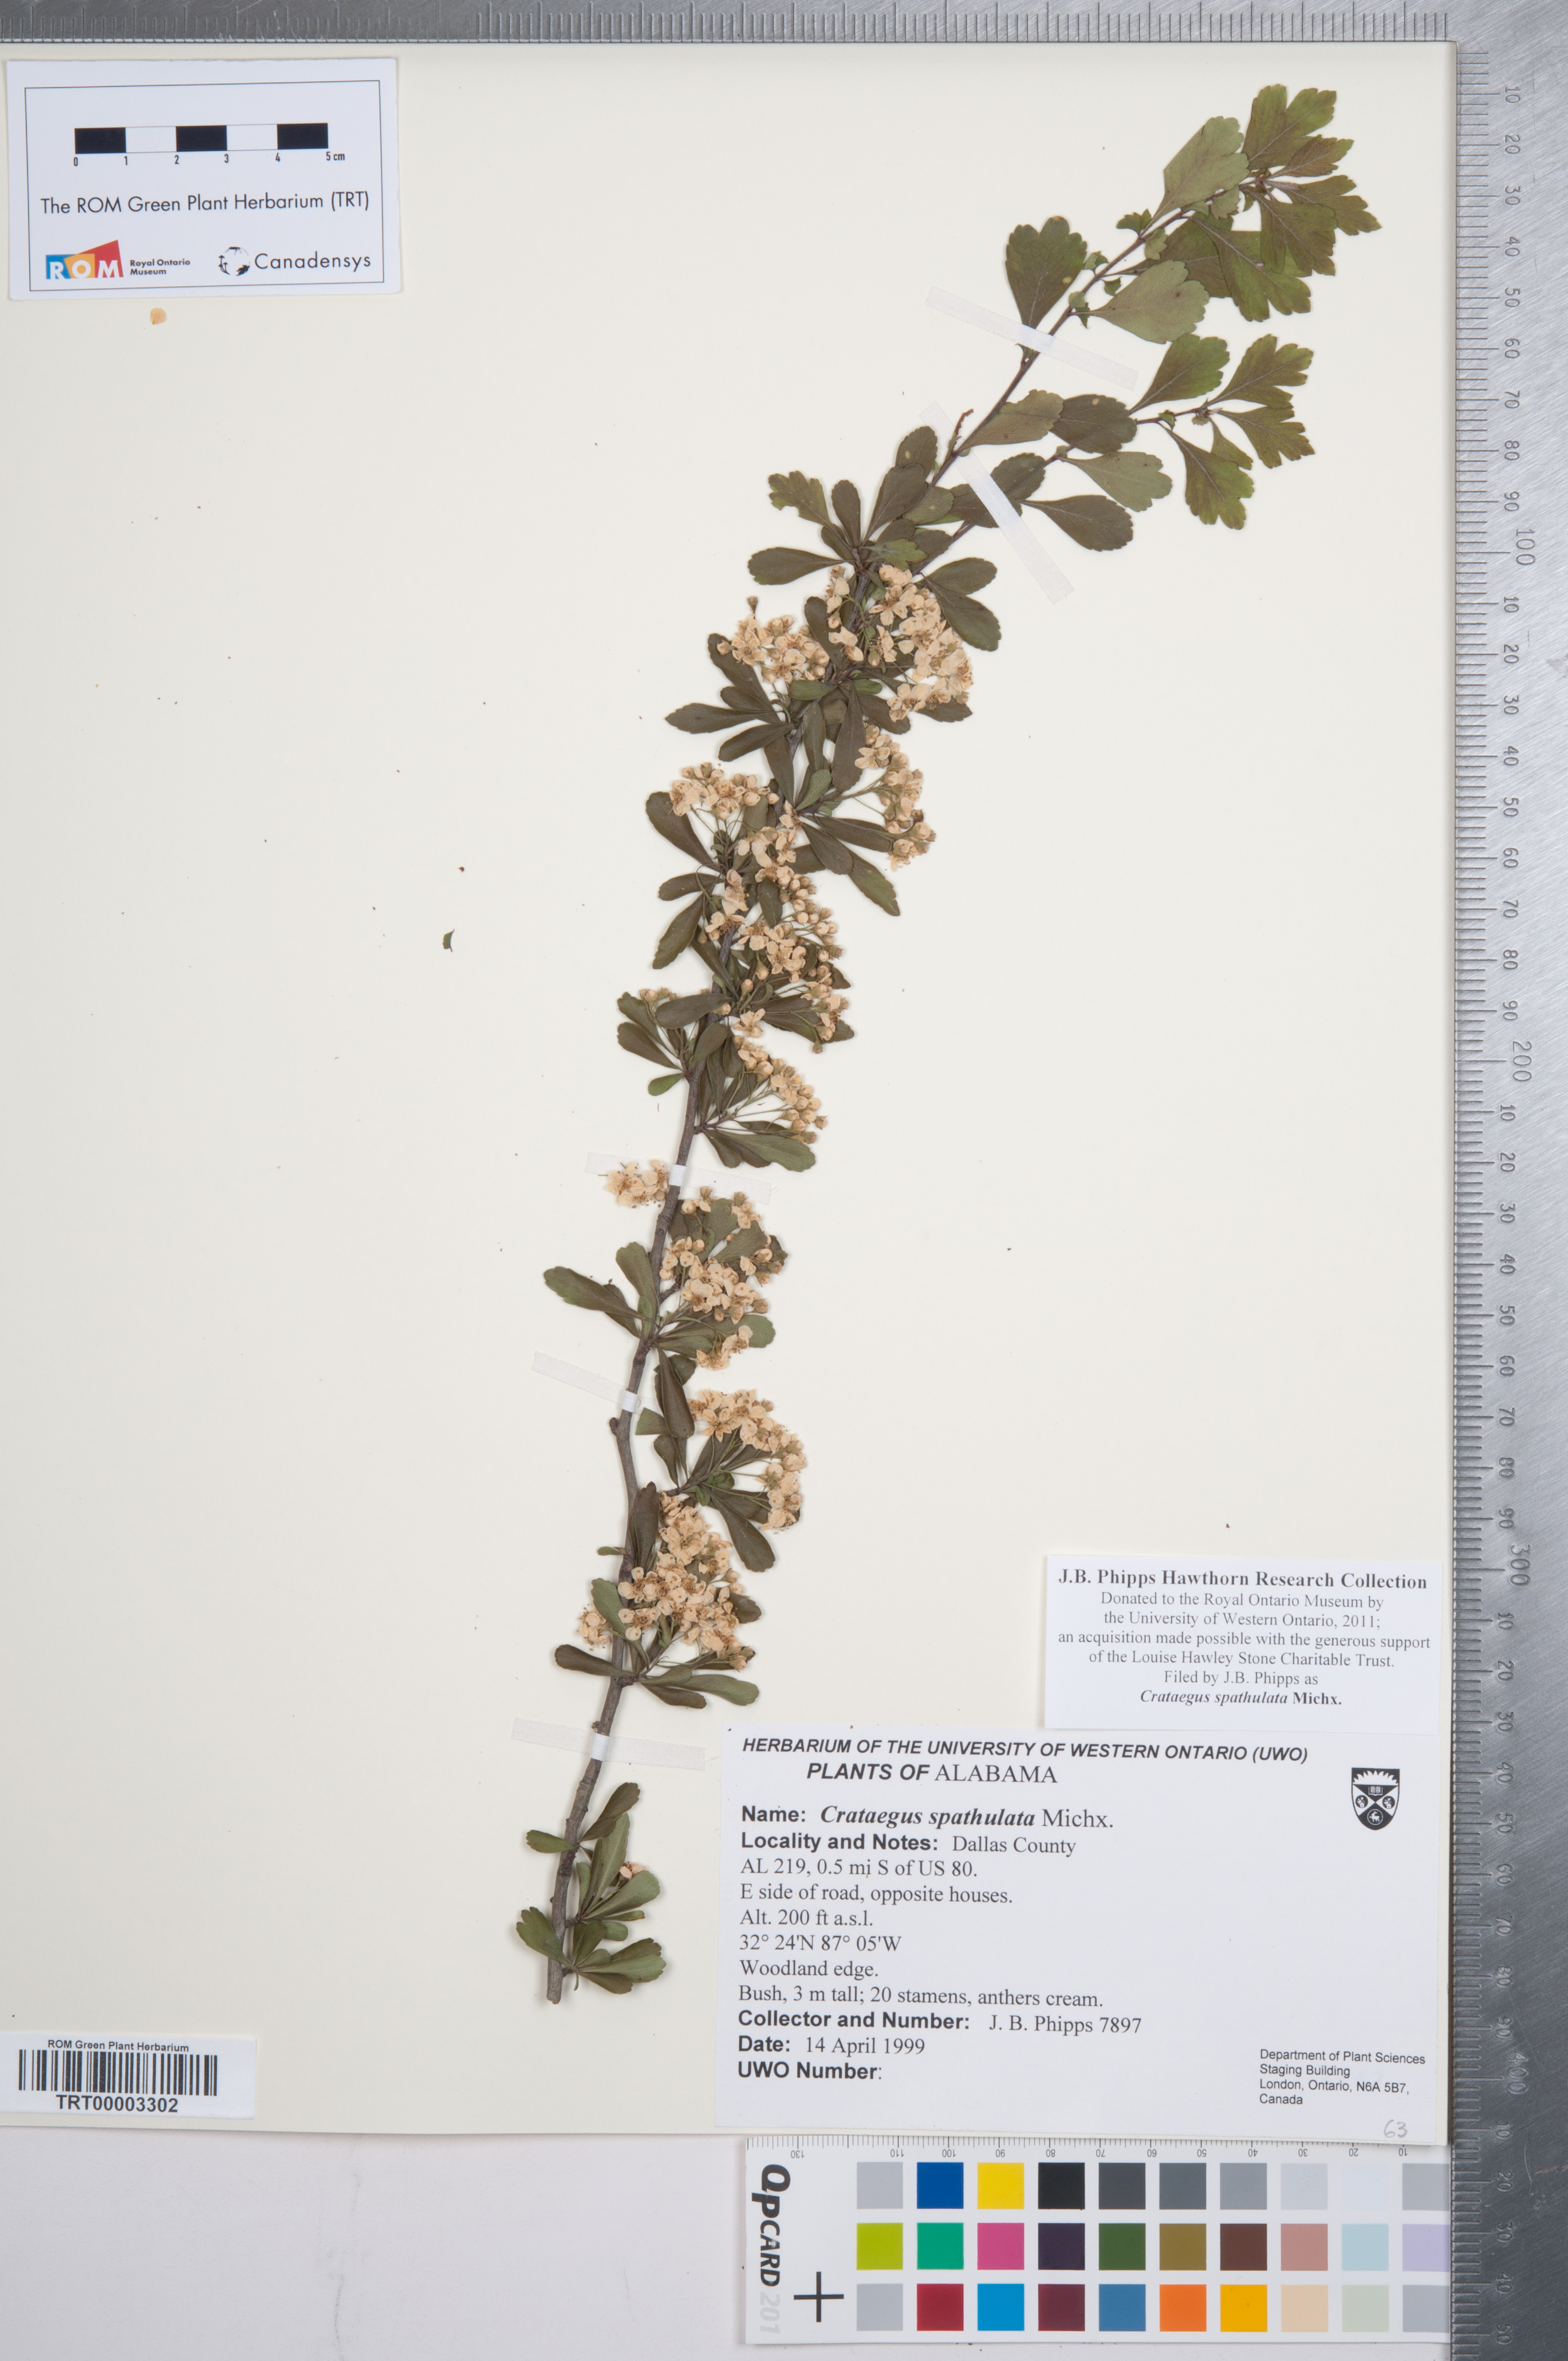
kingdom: Plantae
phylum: Tracheophyta
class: Magnoliopsida
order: Rosales
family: Rosaceae
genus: Crataegus
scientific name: Crataegus spathulata
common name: Littlehip hawthorn
